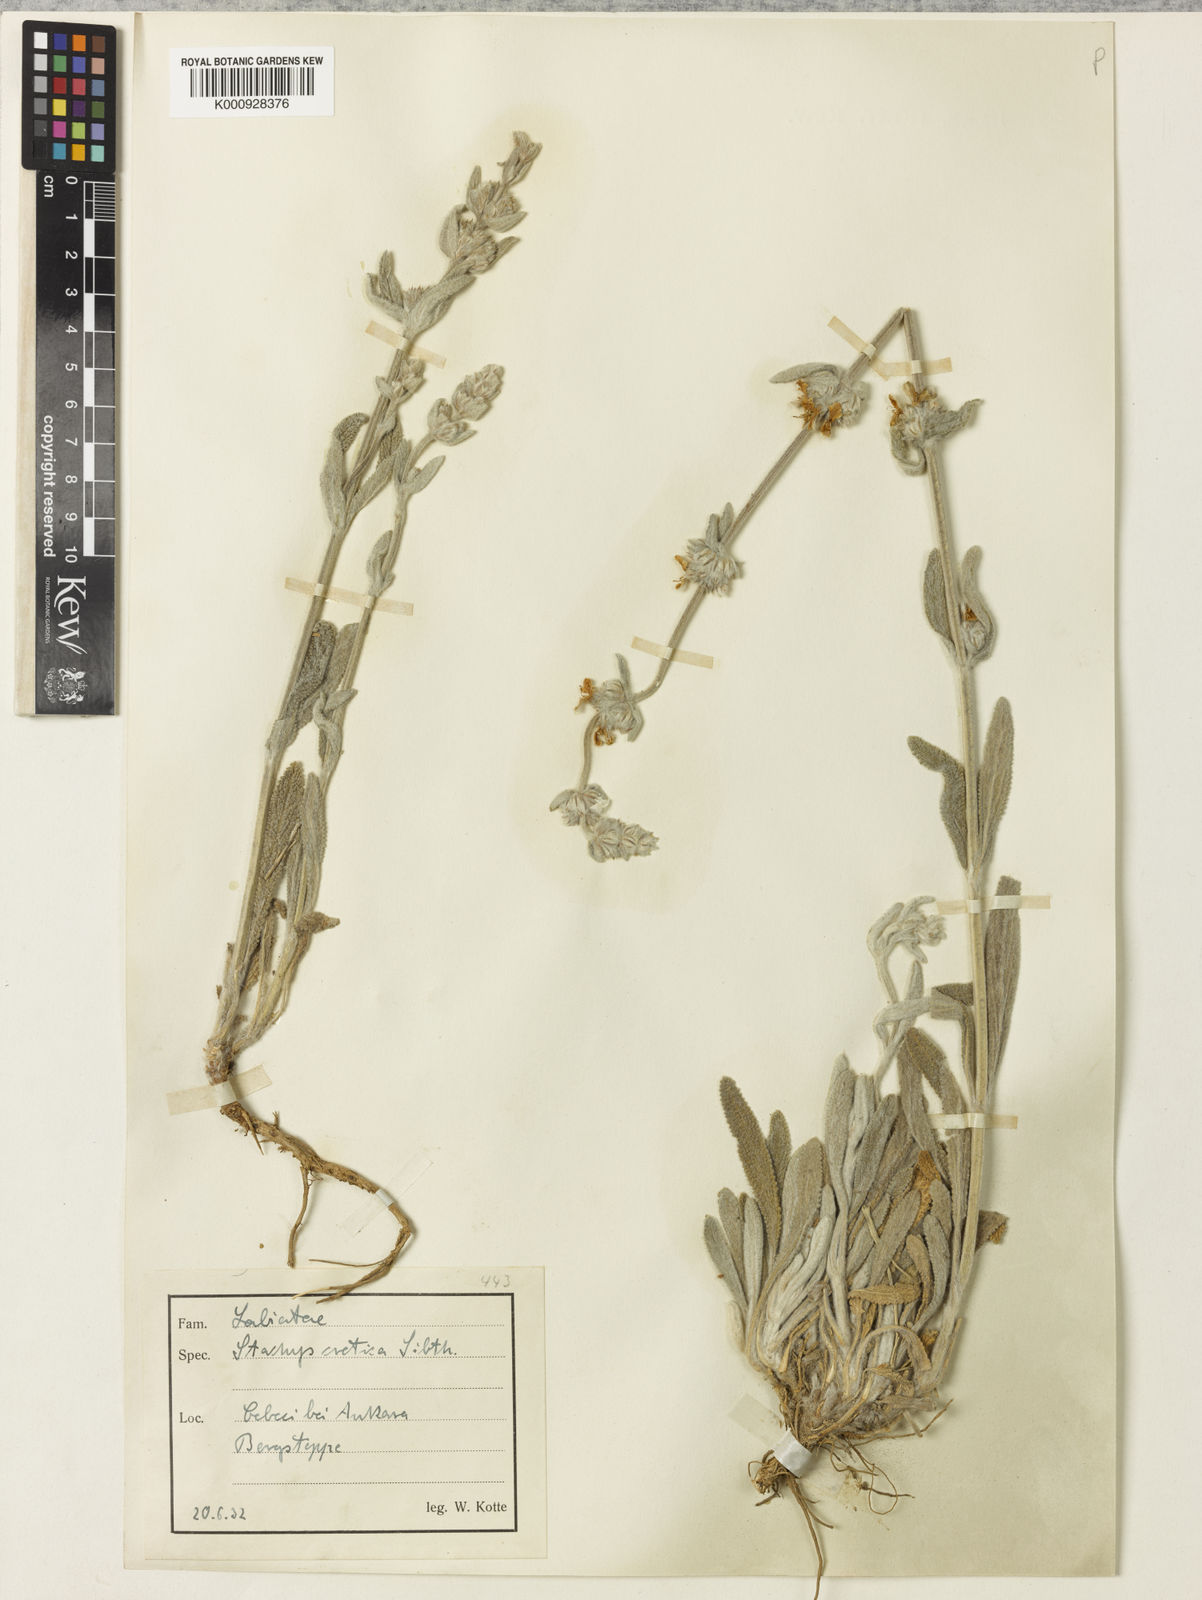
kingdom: Plantae
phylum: Tracheophyta
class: Magnoliopsida
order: Lamiales
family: Lamiaceae
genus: Stachys
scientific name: Stachys cretica
